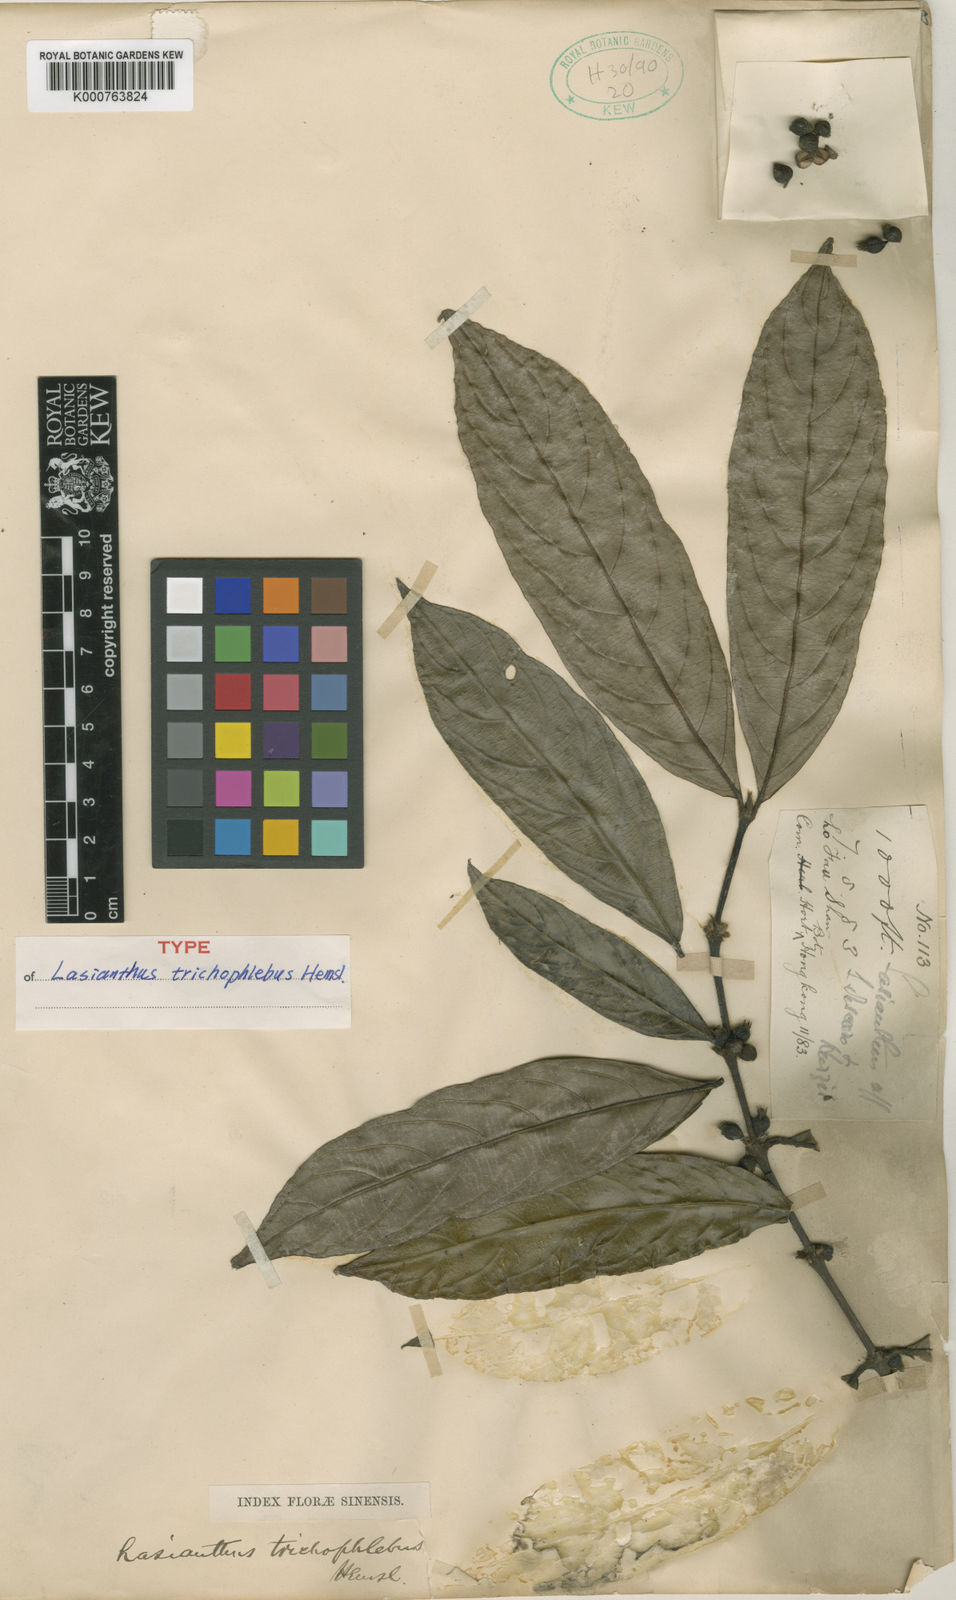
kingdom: Plantae
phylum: Tracheophyta
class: Magnoliopsida
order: Gentianales
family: Rubiaceae
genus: Lasianthus
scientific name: Lasianthus trichophlebus
